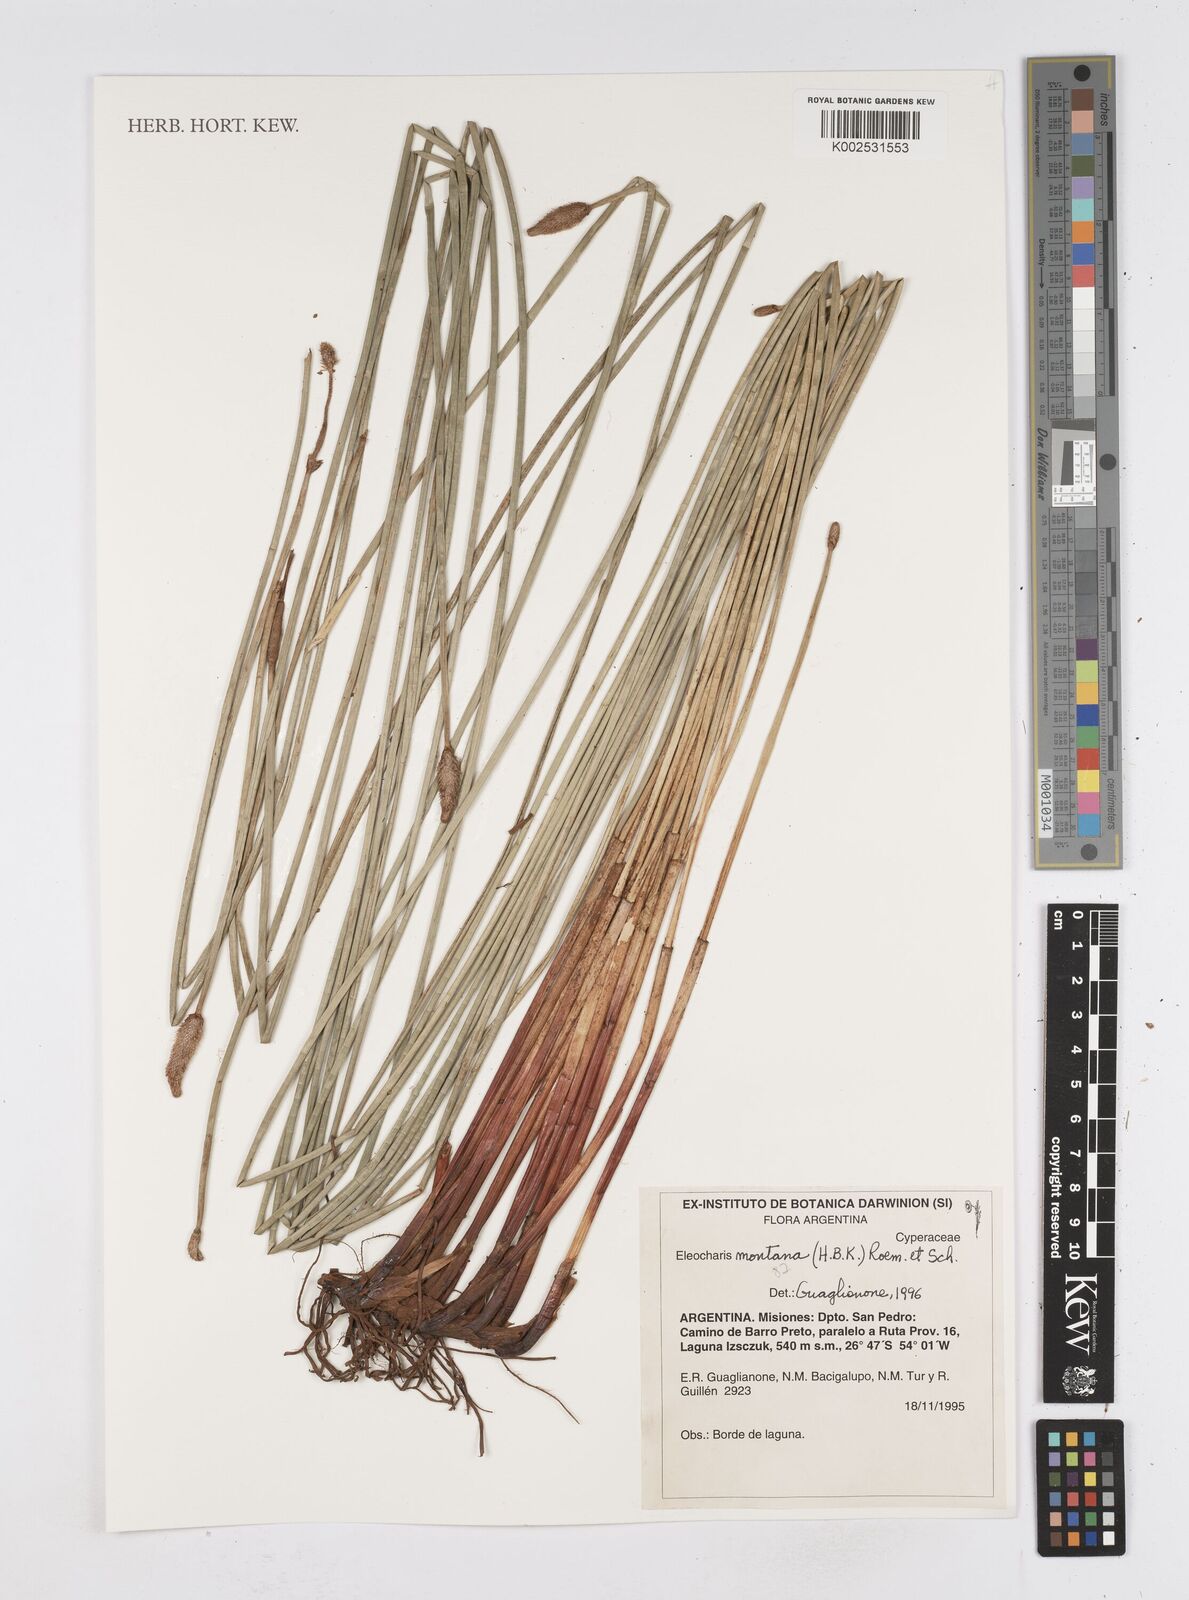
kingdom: Plantae
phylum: Tracheophyta
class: Liliopsida
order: Poales
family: Cyperaceae
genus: Eleocharis
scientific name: Eleocharis montana
